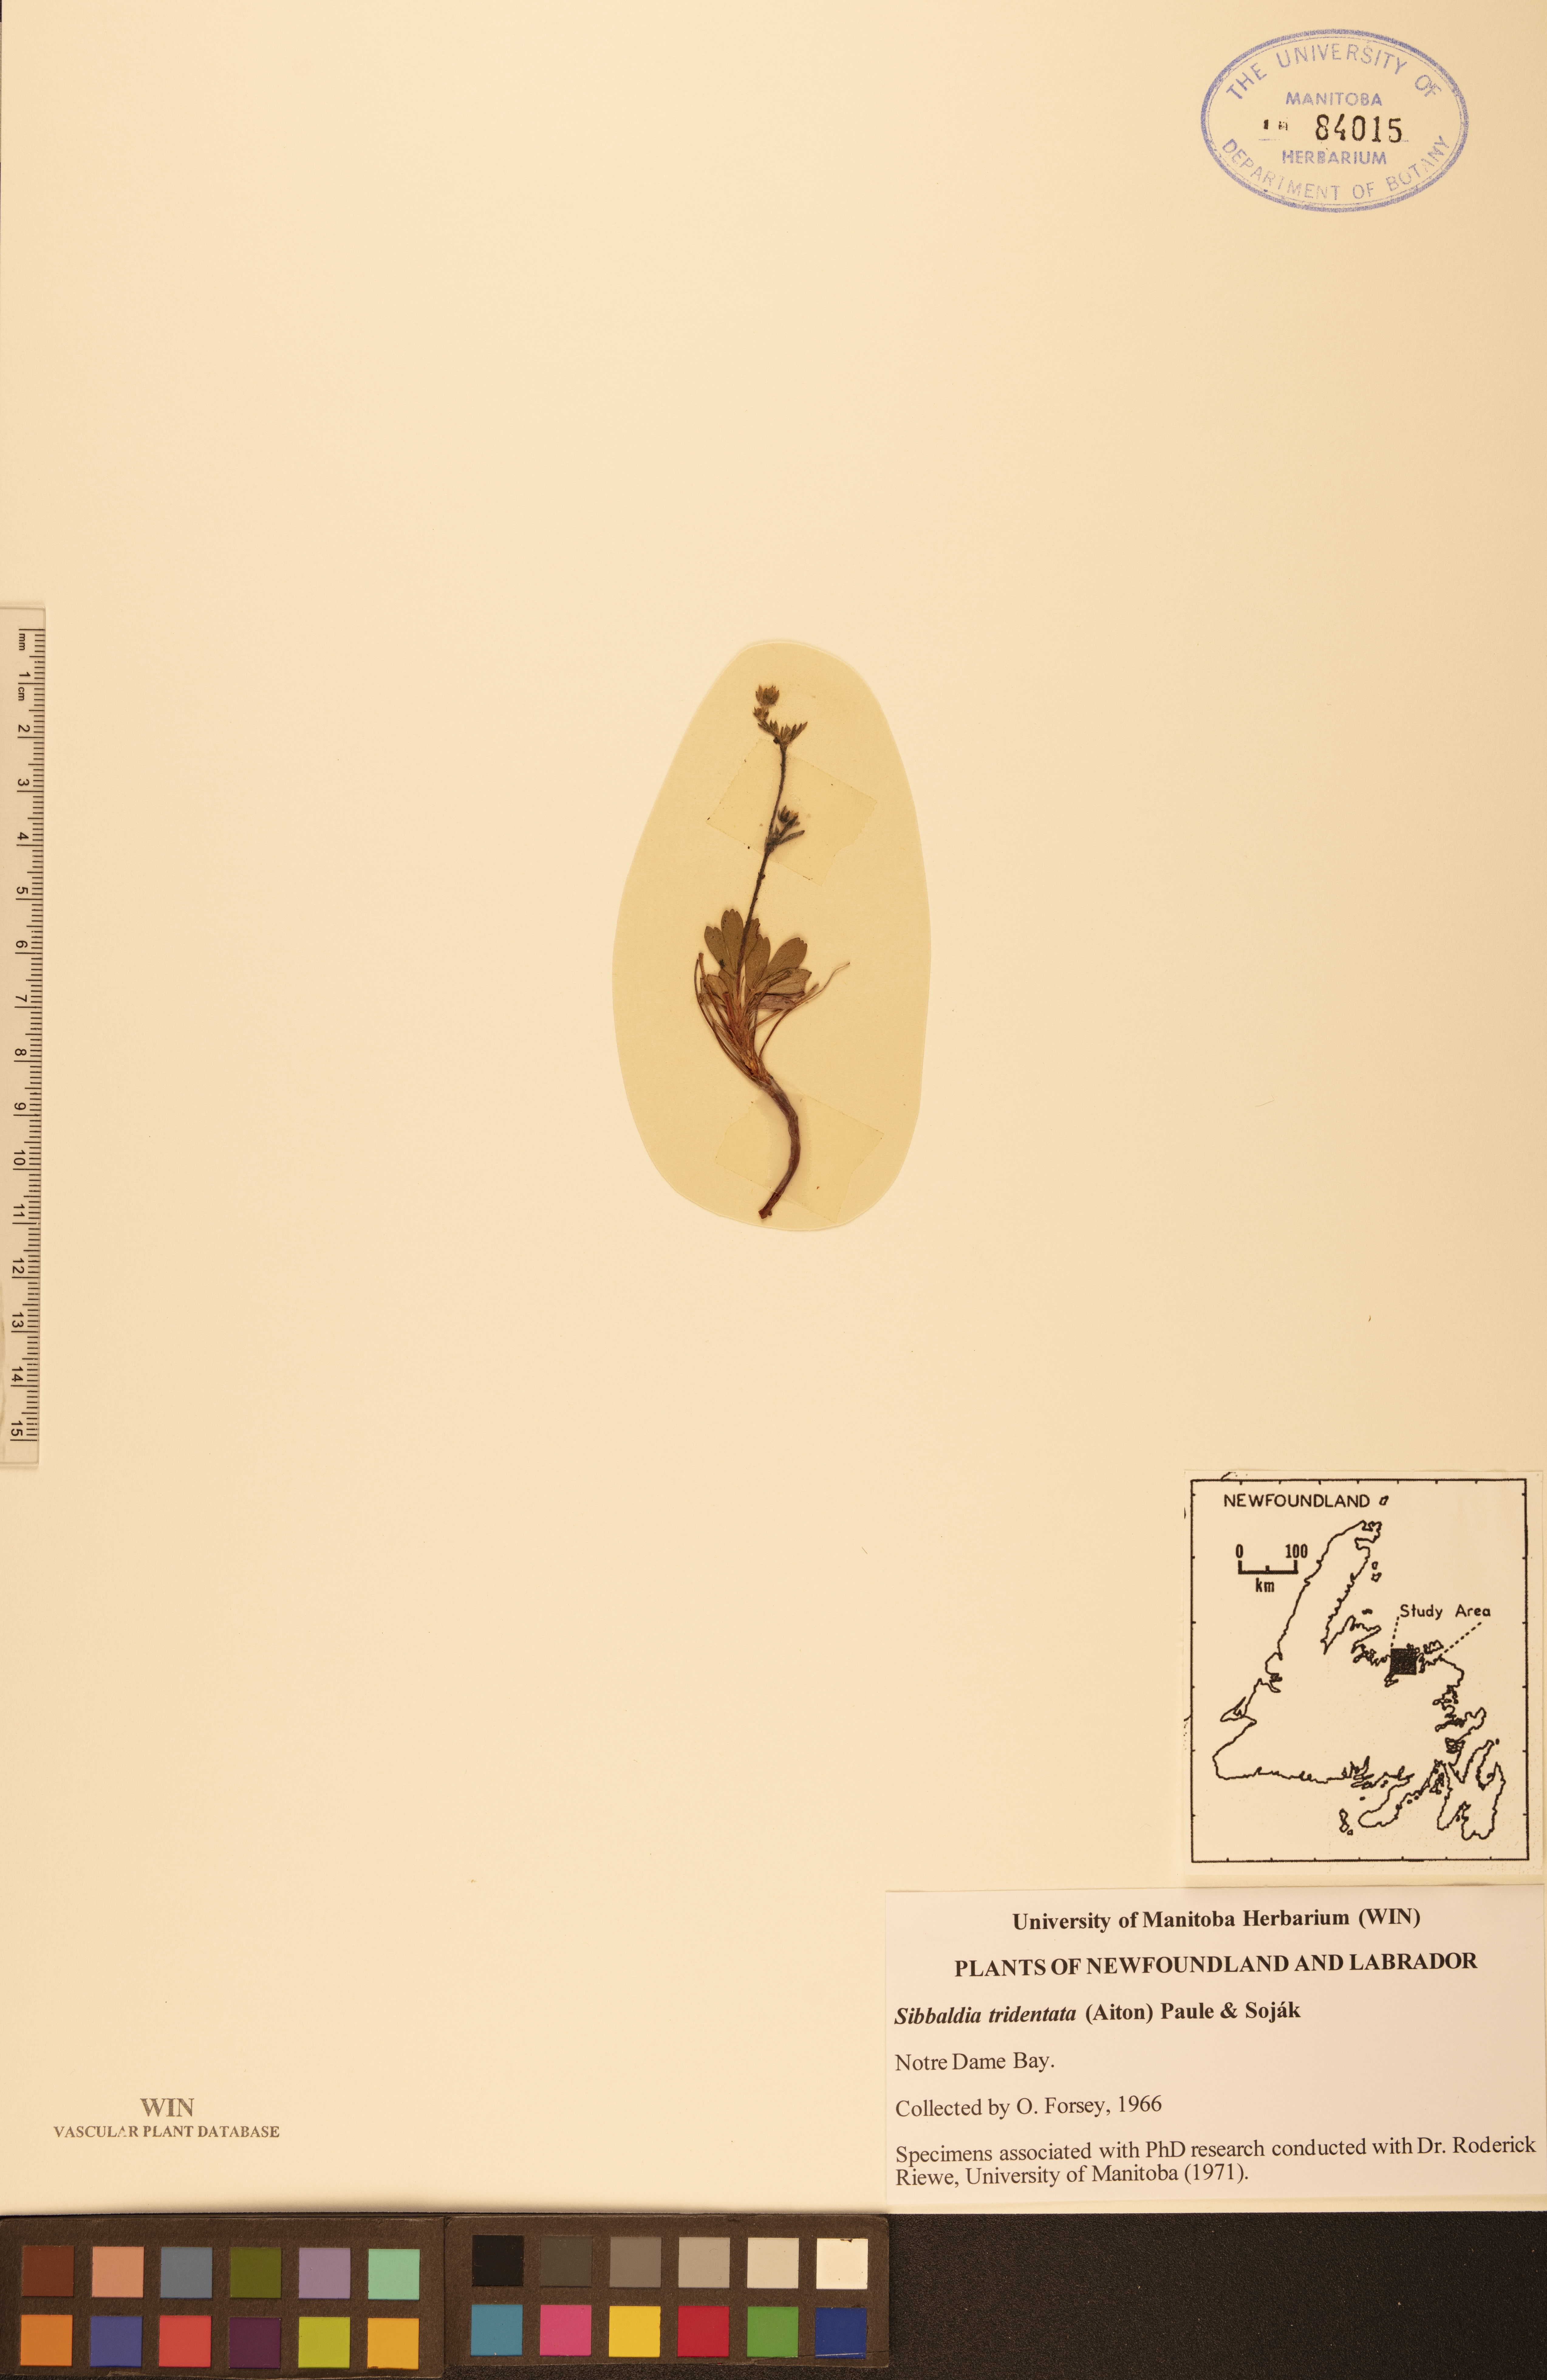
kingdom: Plantae
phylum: Tracheophyta
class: Magnoliopsida
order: Rosales
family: Rosaceae
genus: Sibbaldia
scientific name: Sibbaldia tridentata
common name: Three-toothed cinquefoil
